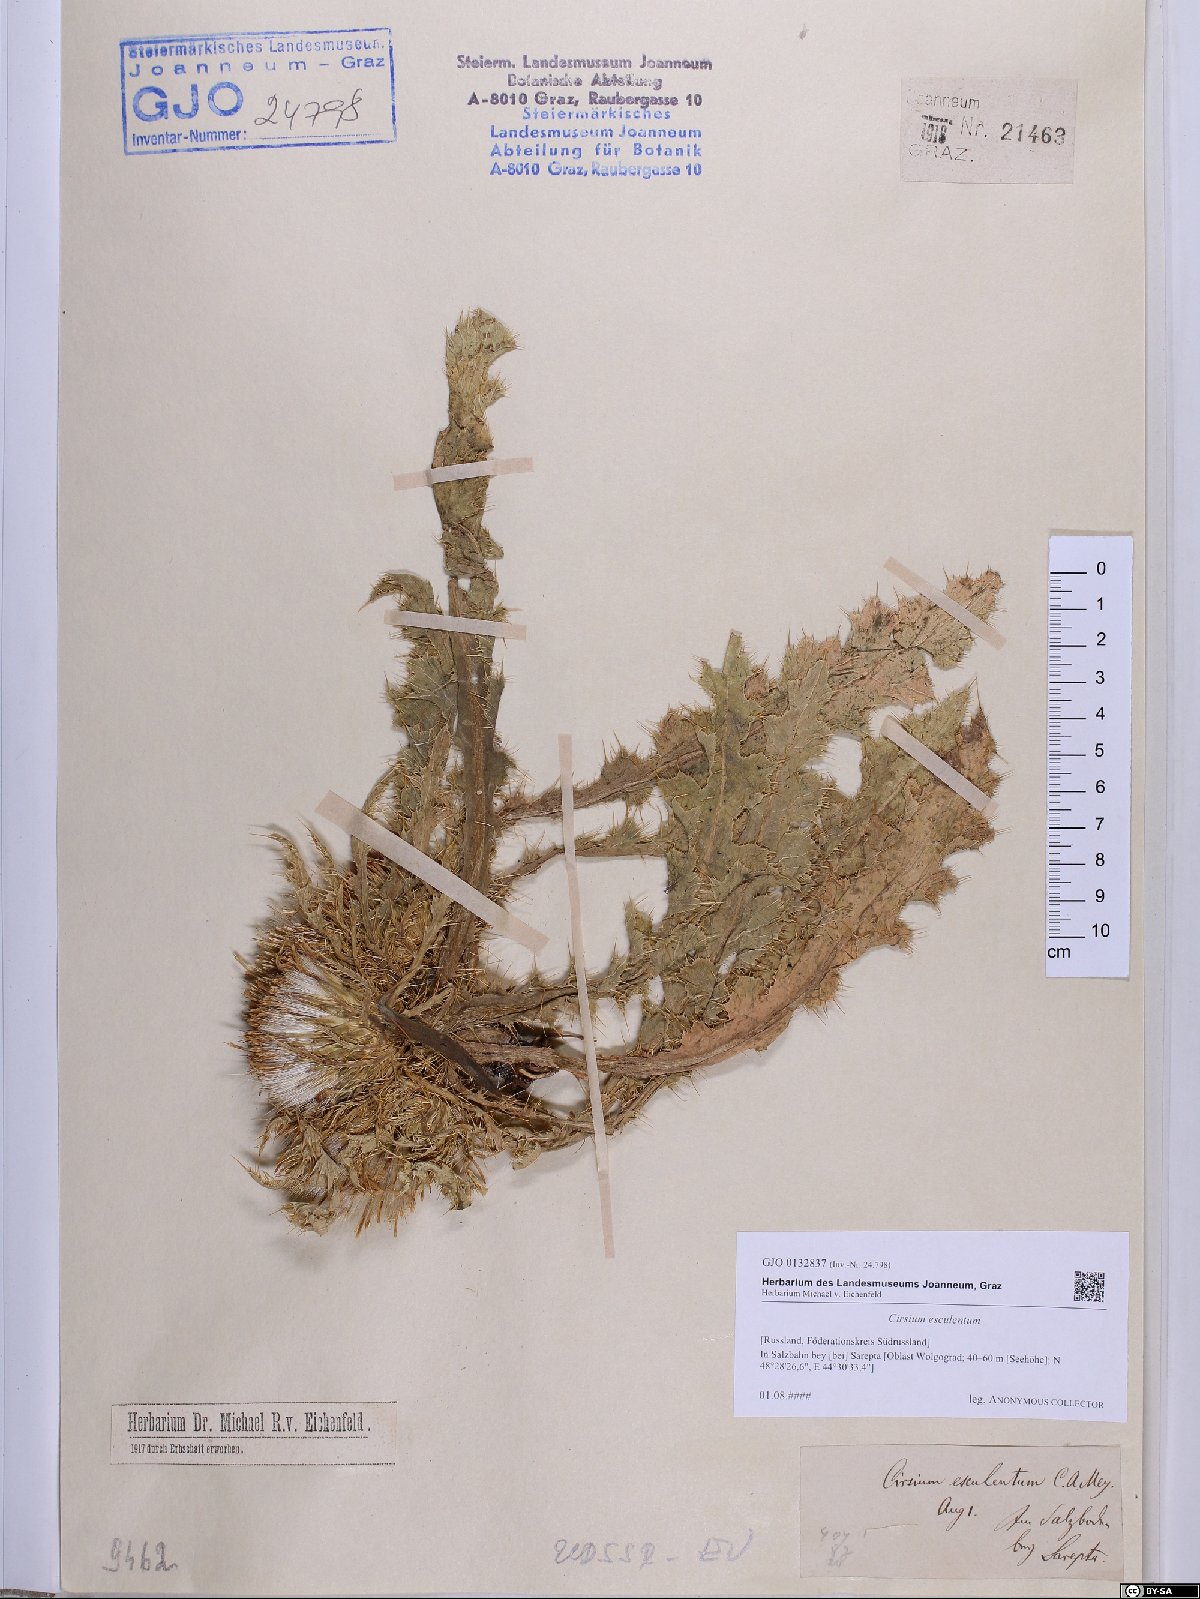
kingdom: Plantae
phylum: Tracheophyta
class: Magnoliopsida
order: Asterales
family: Asteraceae
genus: Cirsium
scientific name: Cirsium esculentum
